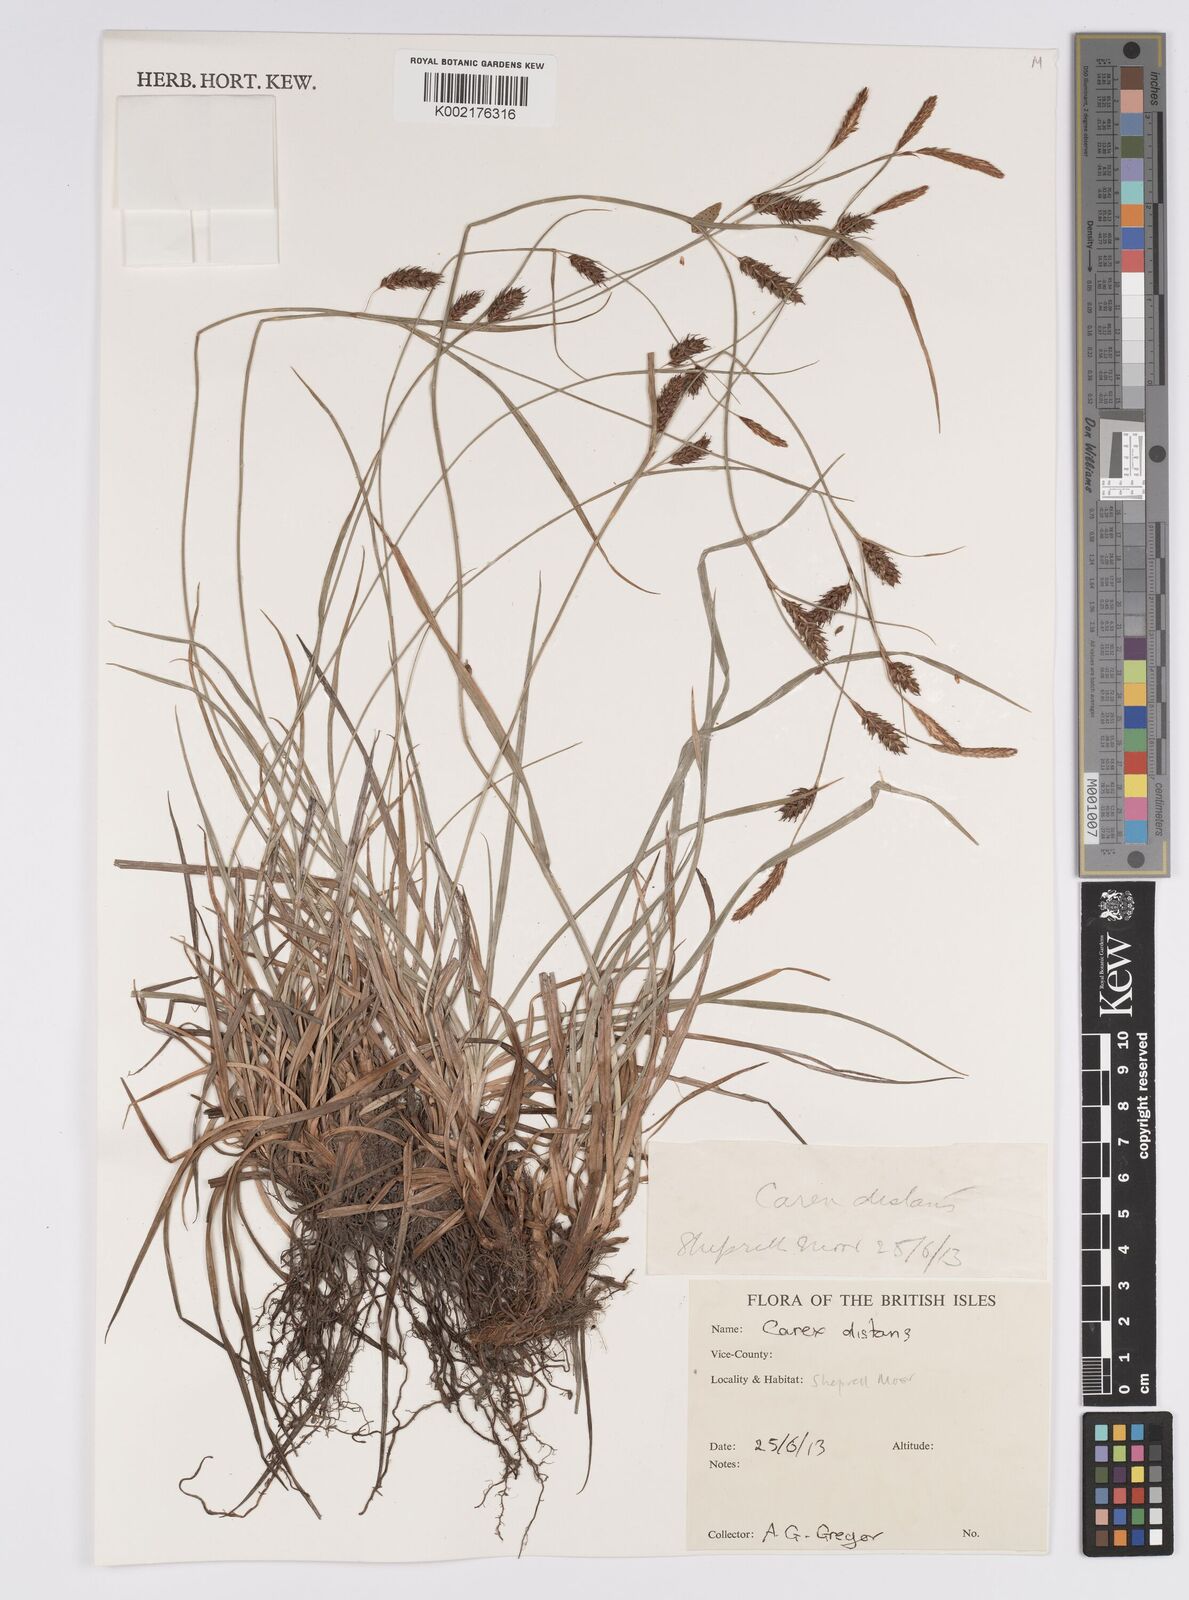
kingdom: Plantae
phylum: Tracheophyta
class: Liliopsida
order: Poales
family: Cyperaceae
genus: Carex
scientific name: Carex distans
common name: Distant sedge
